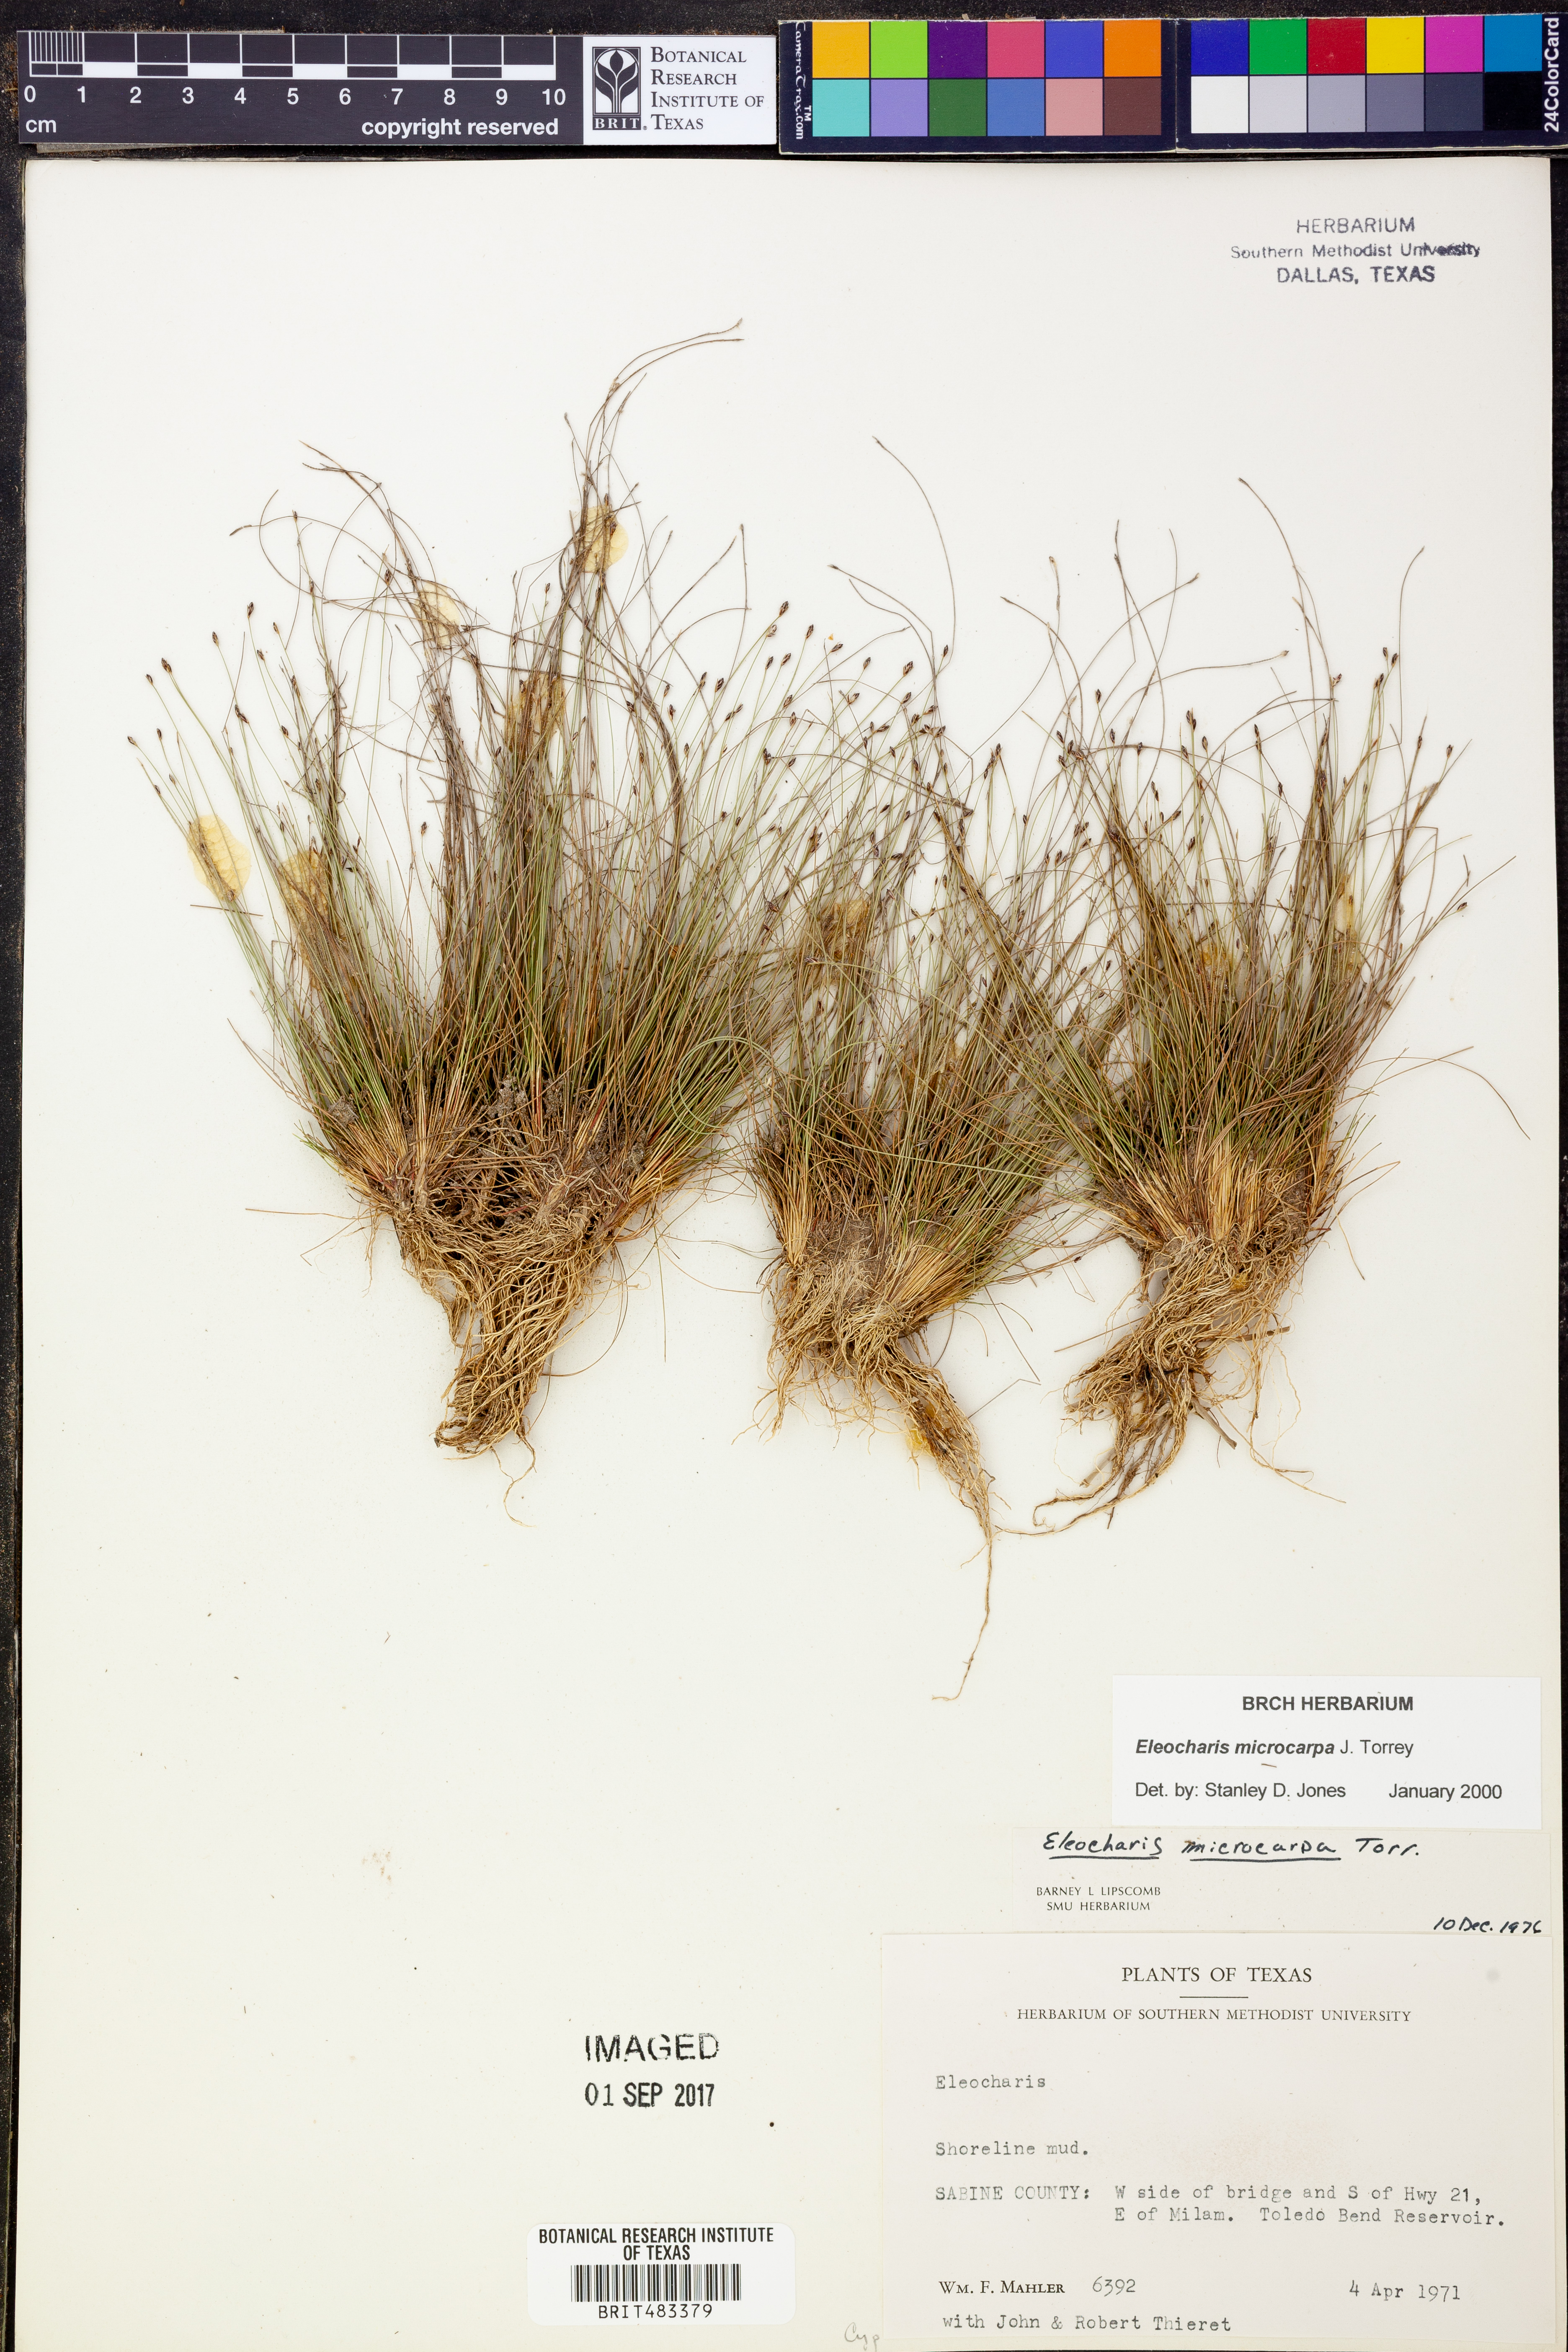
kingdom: Plantae
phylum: Tracheophyta
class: Liliopsida
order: Poales
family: Cyperaceae
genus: Eleocharis
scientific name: Eleocharis microcarpa
